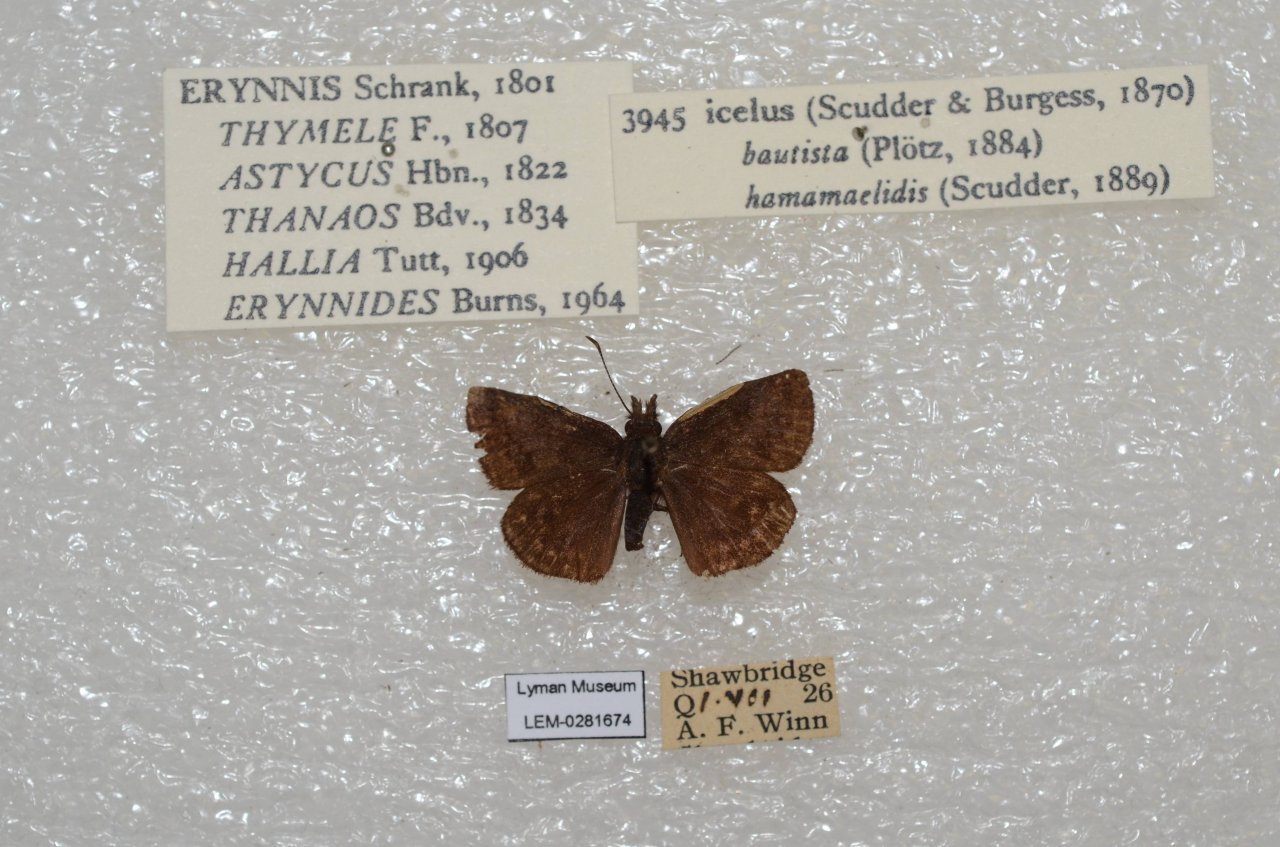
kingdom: Animalia
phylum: Arthropoda
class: Insecta
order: Lepidoptera
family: Hesperiidae
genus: Erynnis
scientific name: Erynnis icelus
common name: Dreamy Duskywing
